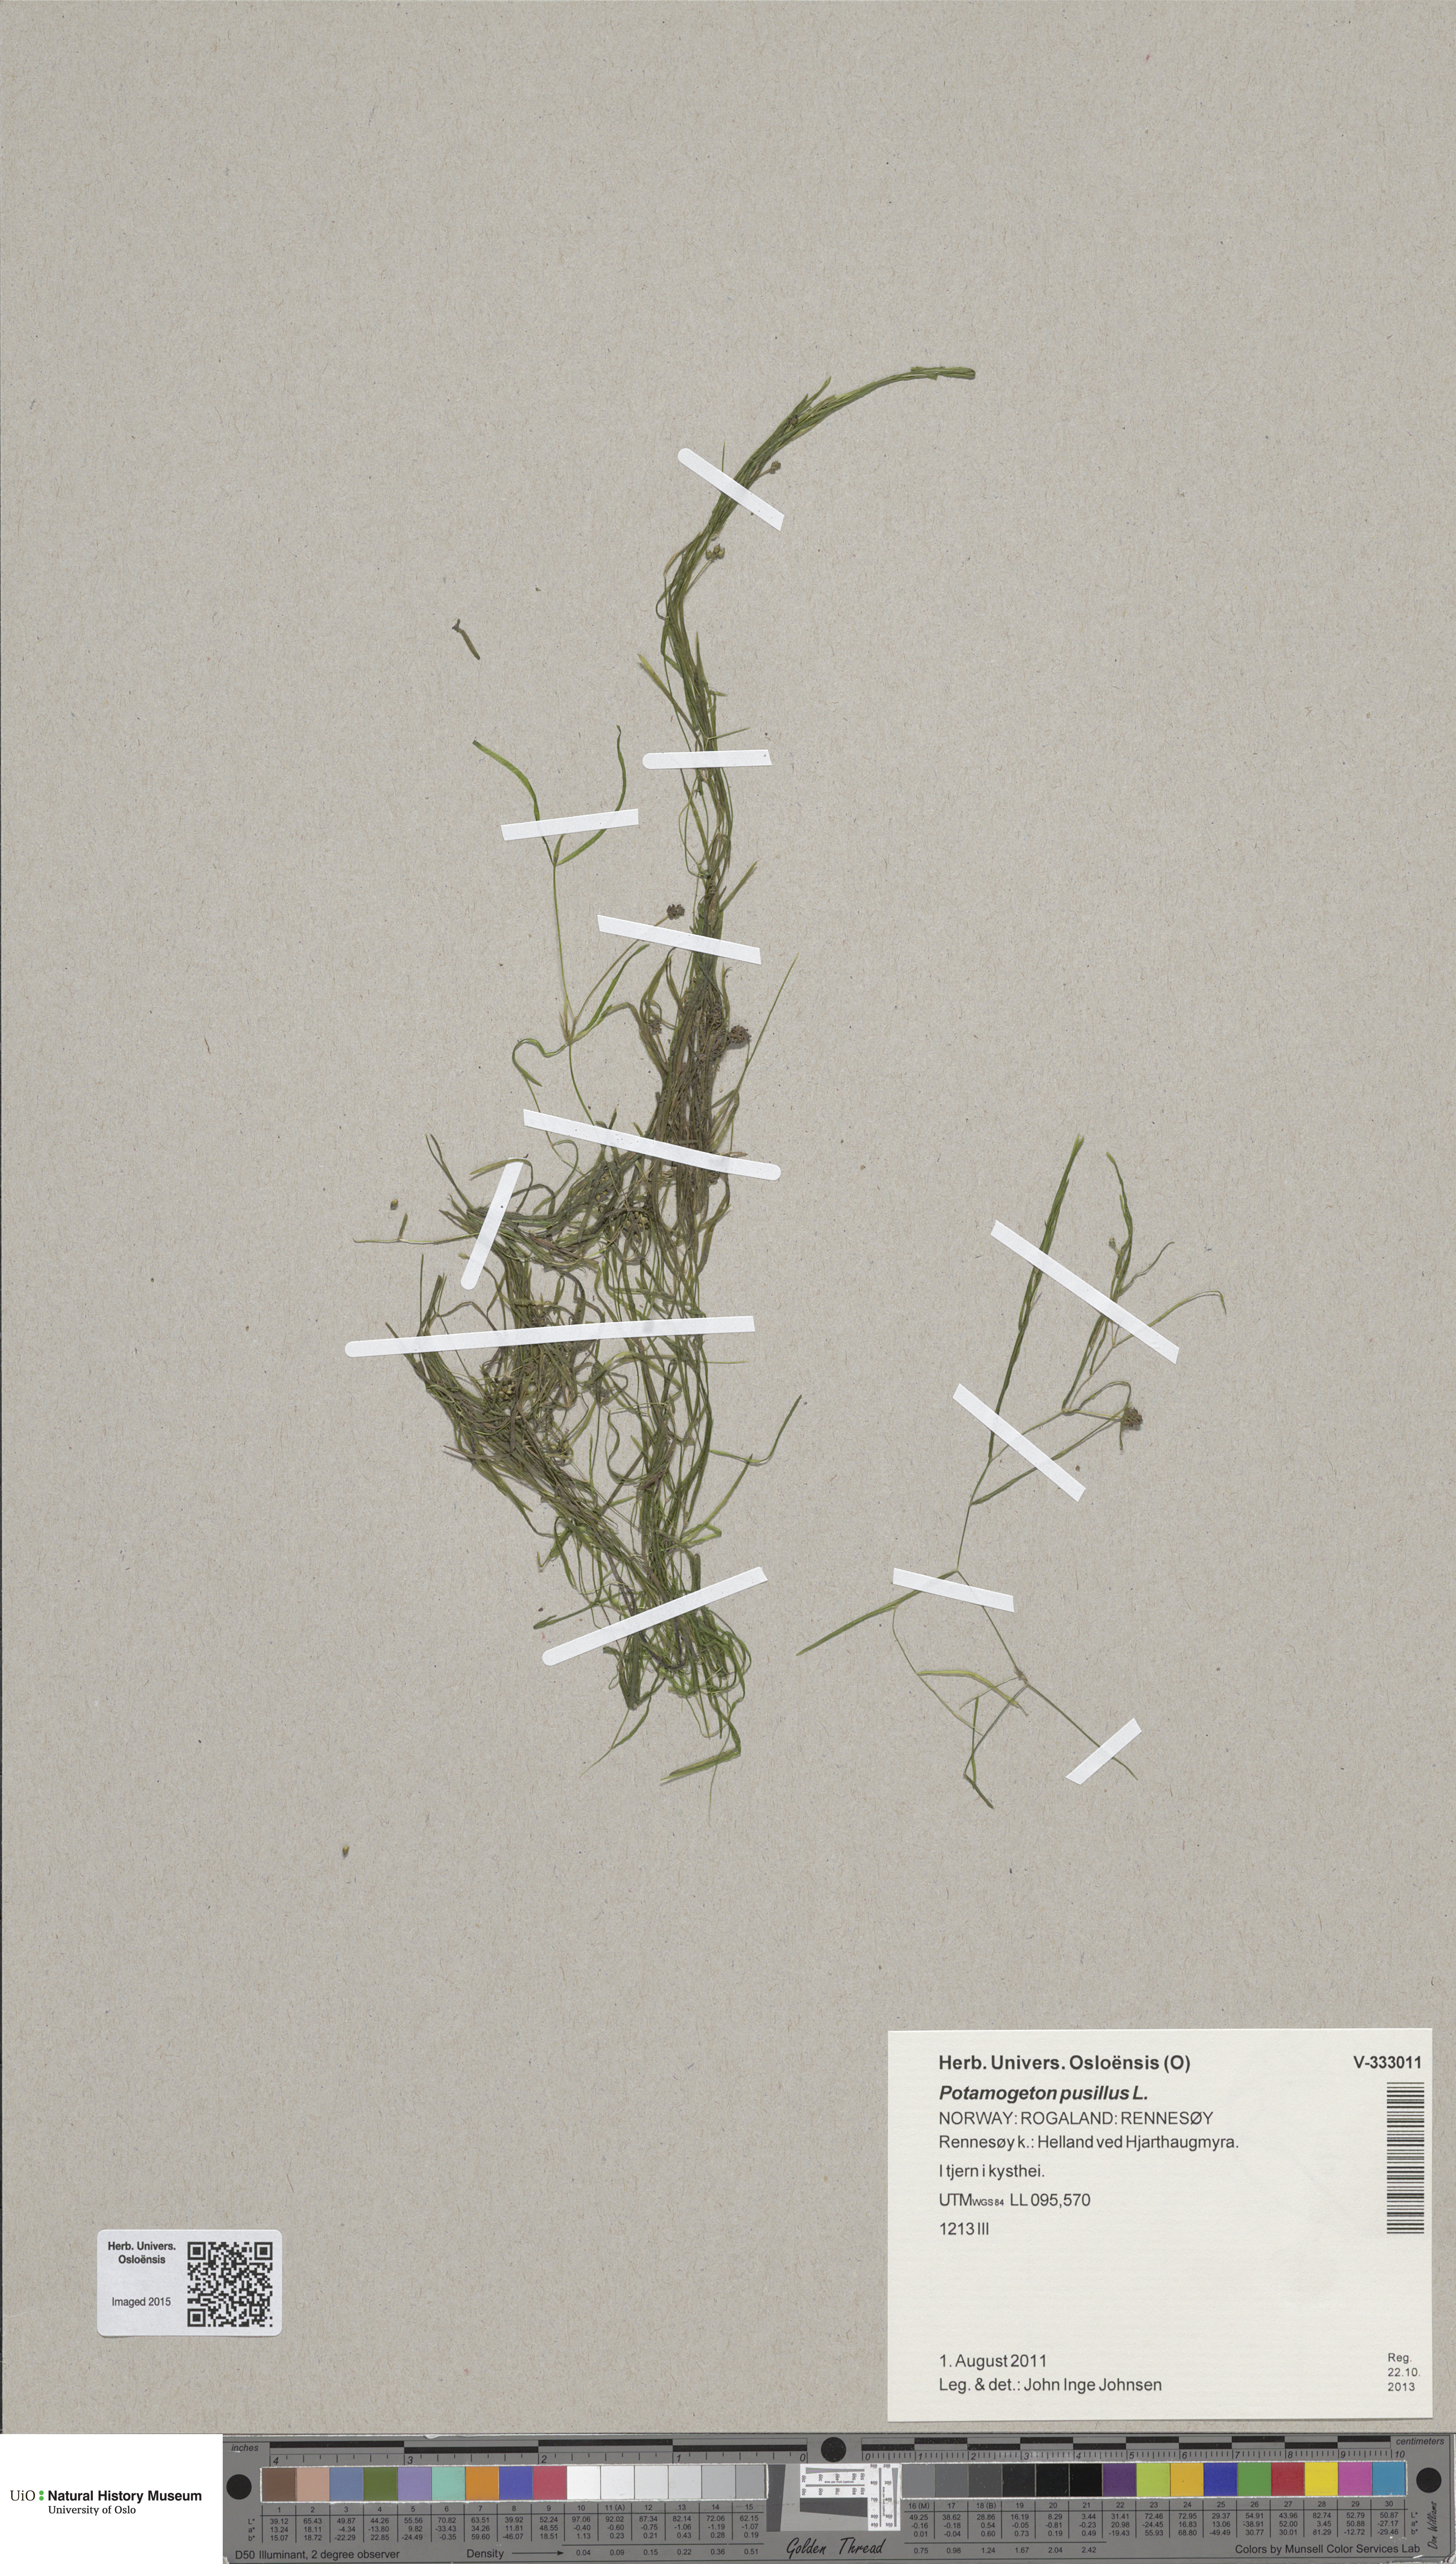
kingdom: Plantae
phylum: Tracheophyta
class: Liliopsida
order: Alismatales
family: Potamogetonaceae
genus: Potamogeton
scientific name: Potamogeton berchtoldii
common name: Small pondweed
